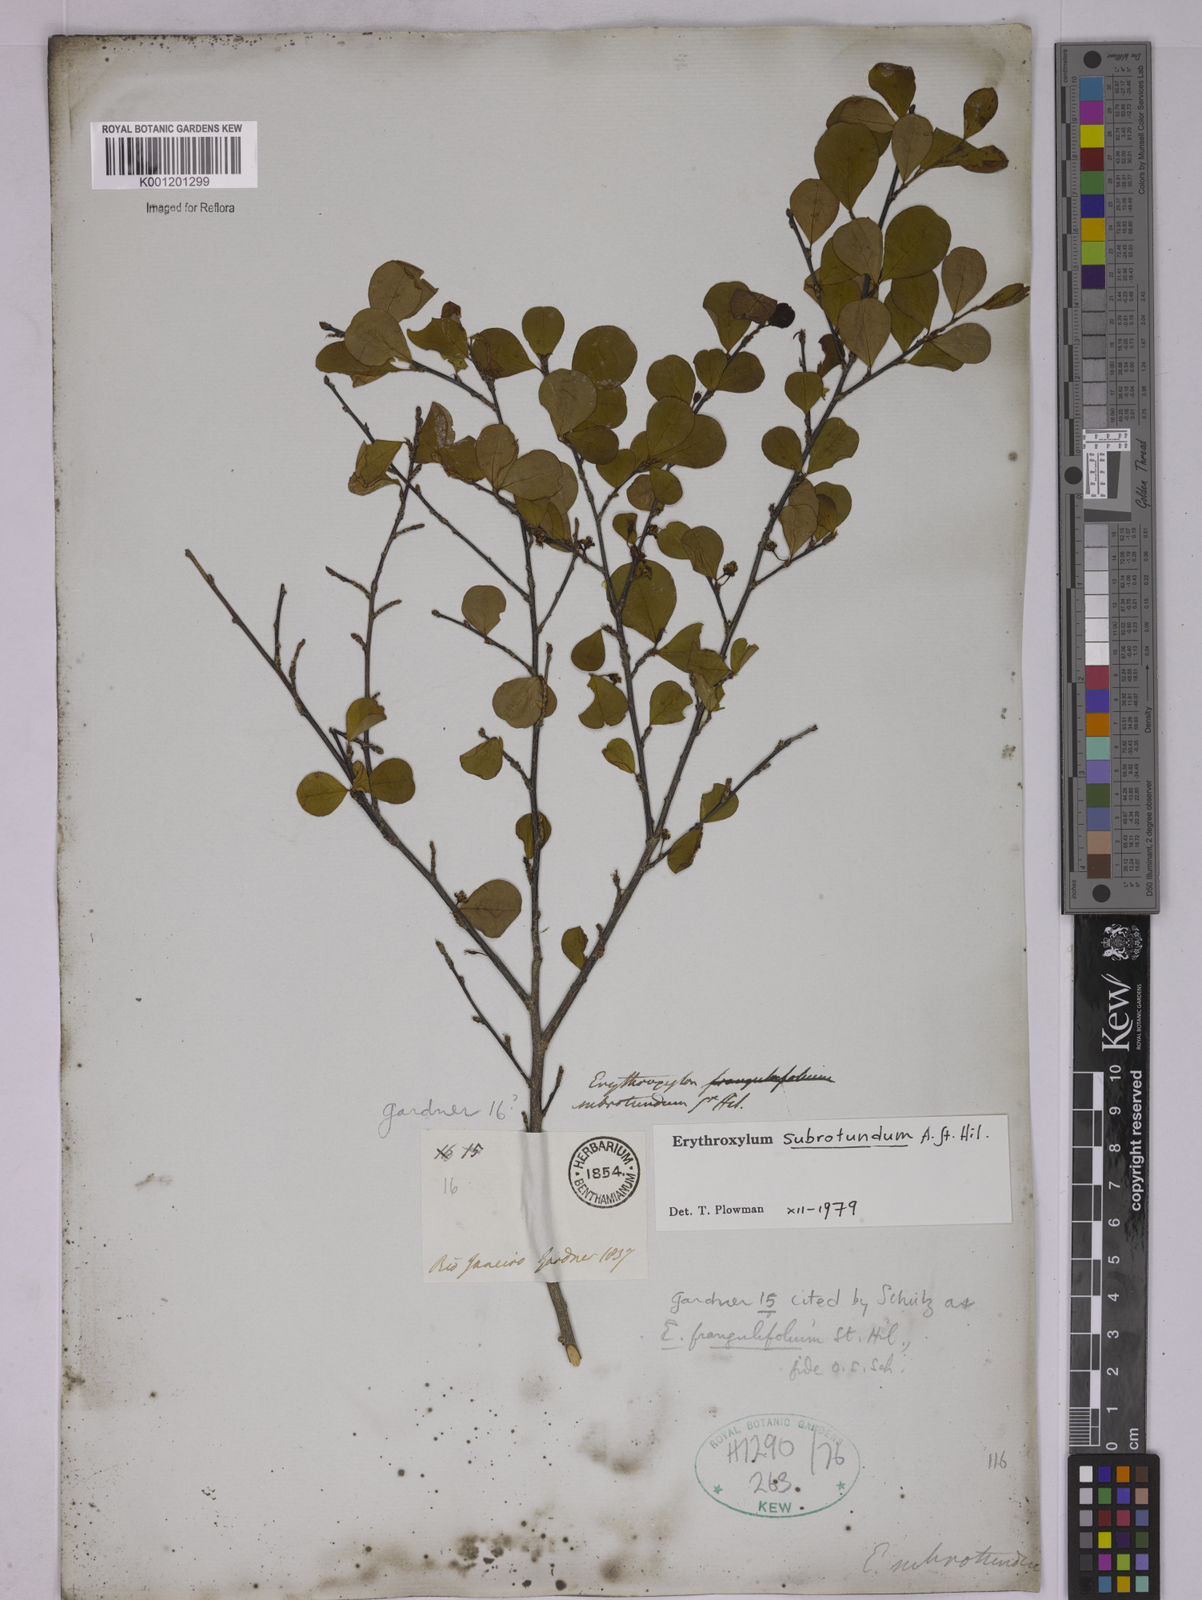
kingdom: Plantae
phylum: Tracheophyta
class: Magnoliopsida
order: Malpighiales
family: Erythroxylaceae
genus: Erythroxylum
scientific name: Erythroxylum subrotundum
